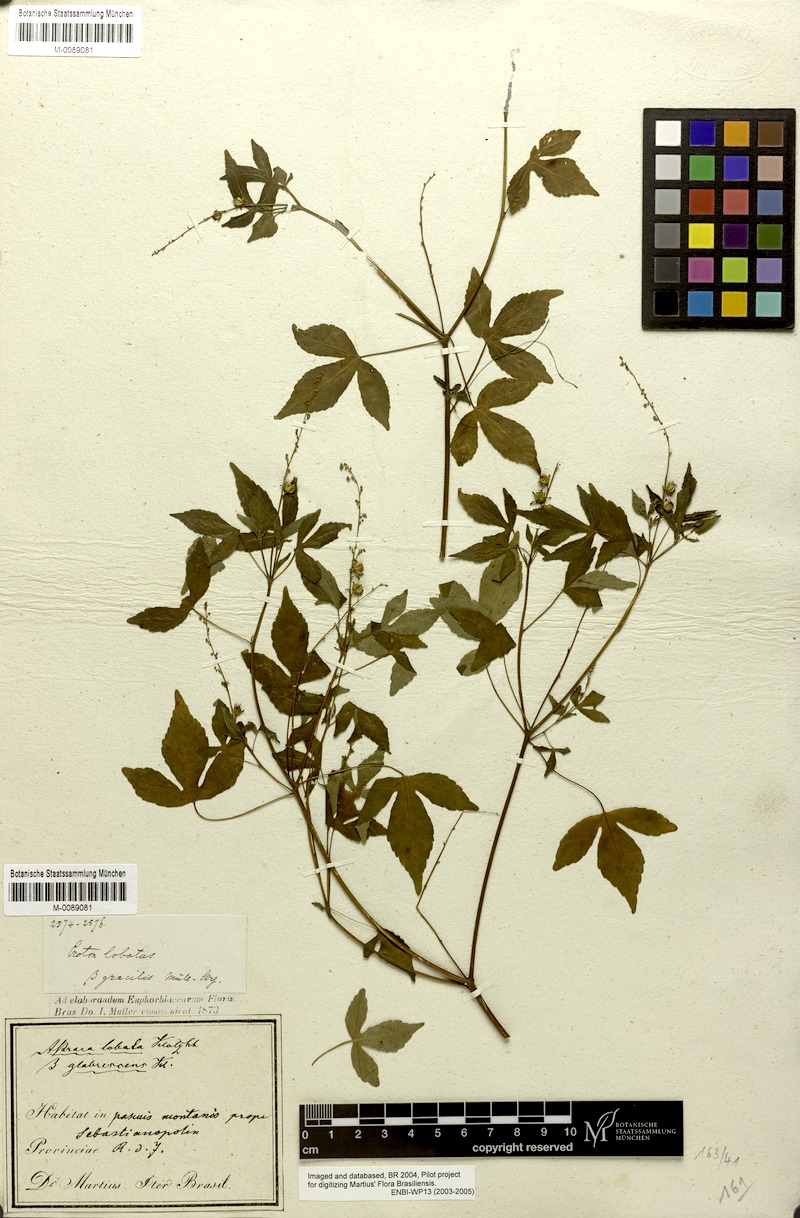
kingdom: Plantae
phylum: Tracheophyta
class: Magnoliopsida
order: Malpighiales
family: Euphorbiaceae
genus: Astraea
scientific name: Astraea gracilis
